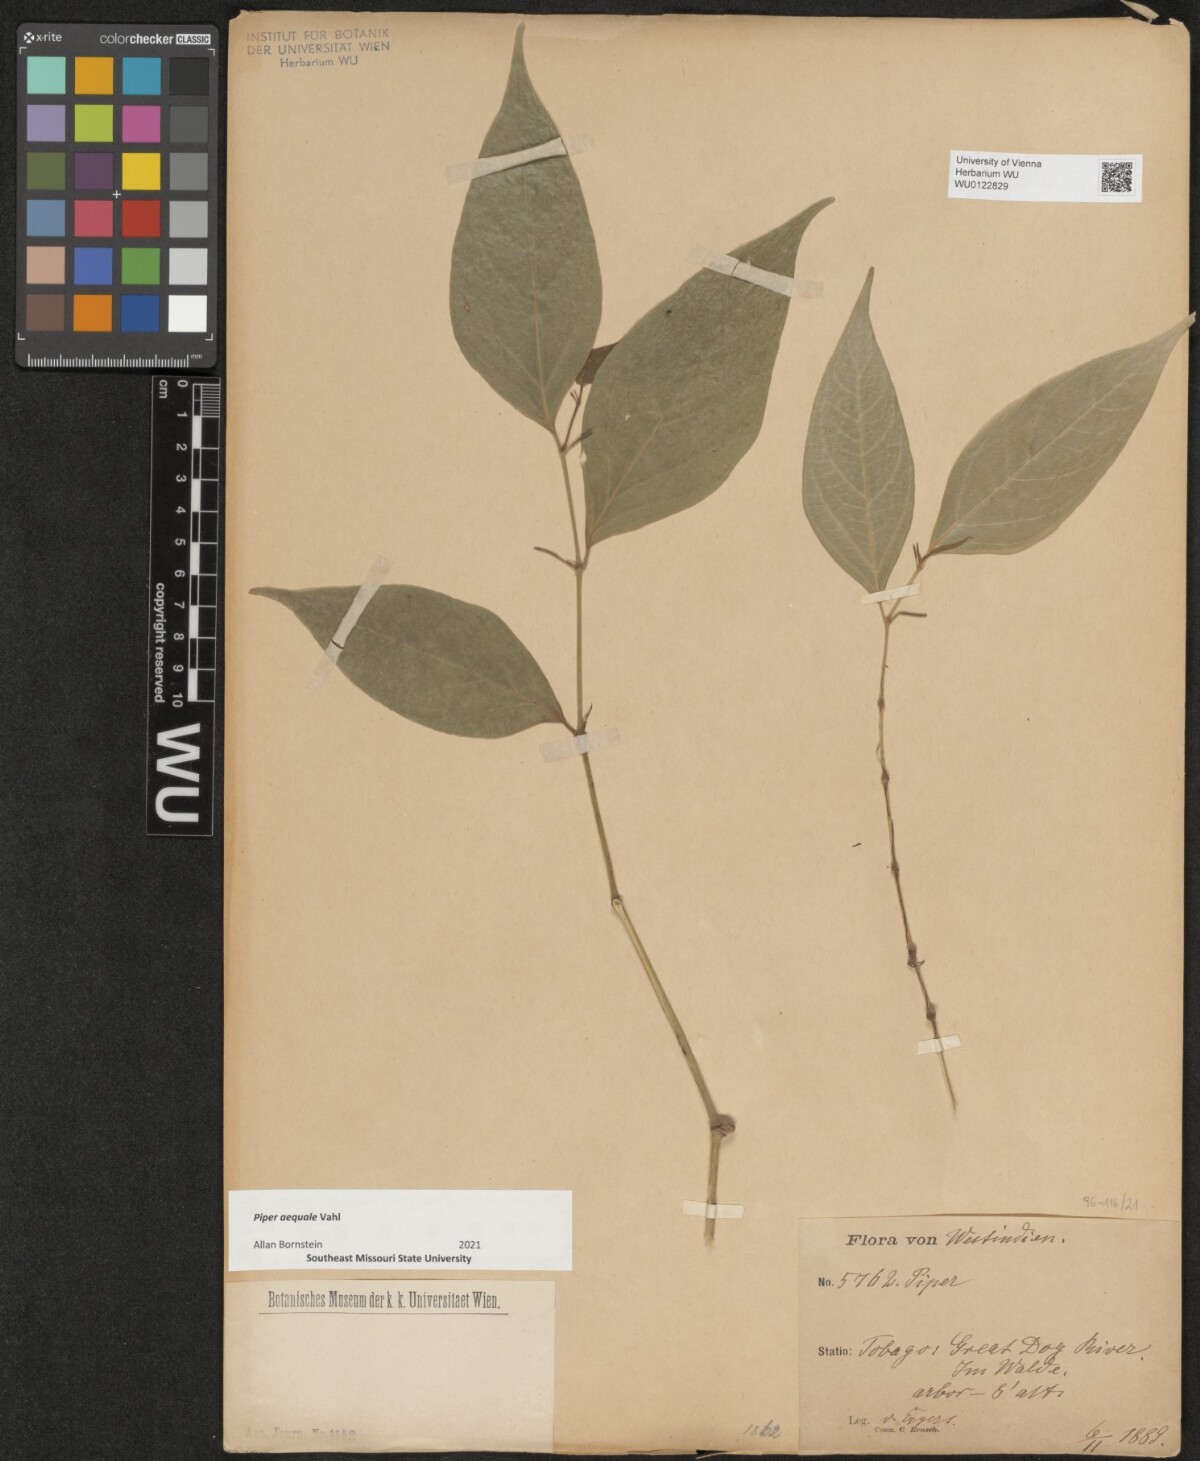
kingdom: Plantae
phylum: Tracheophyta
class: Magnoliopsida
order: Piperales
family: Piperaceae
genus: Piper
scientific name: Piper aequale
